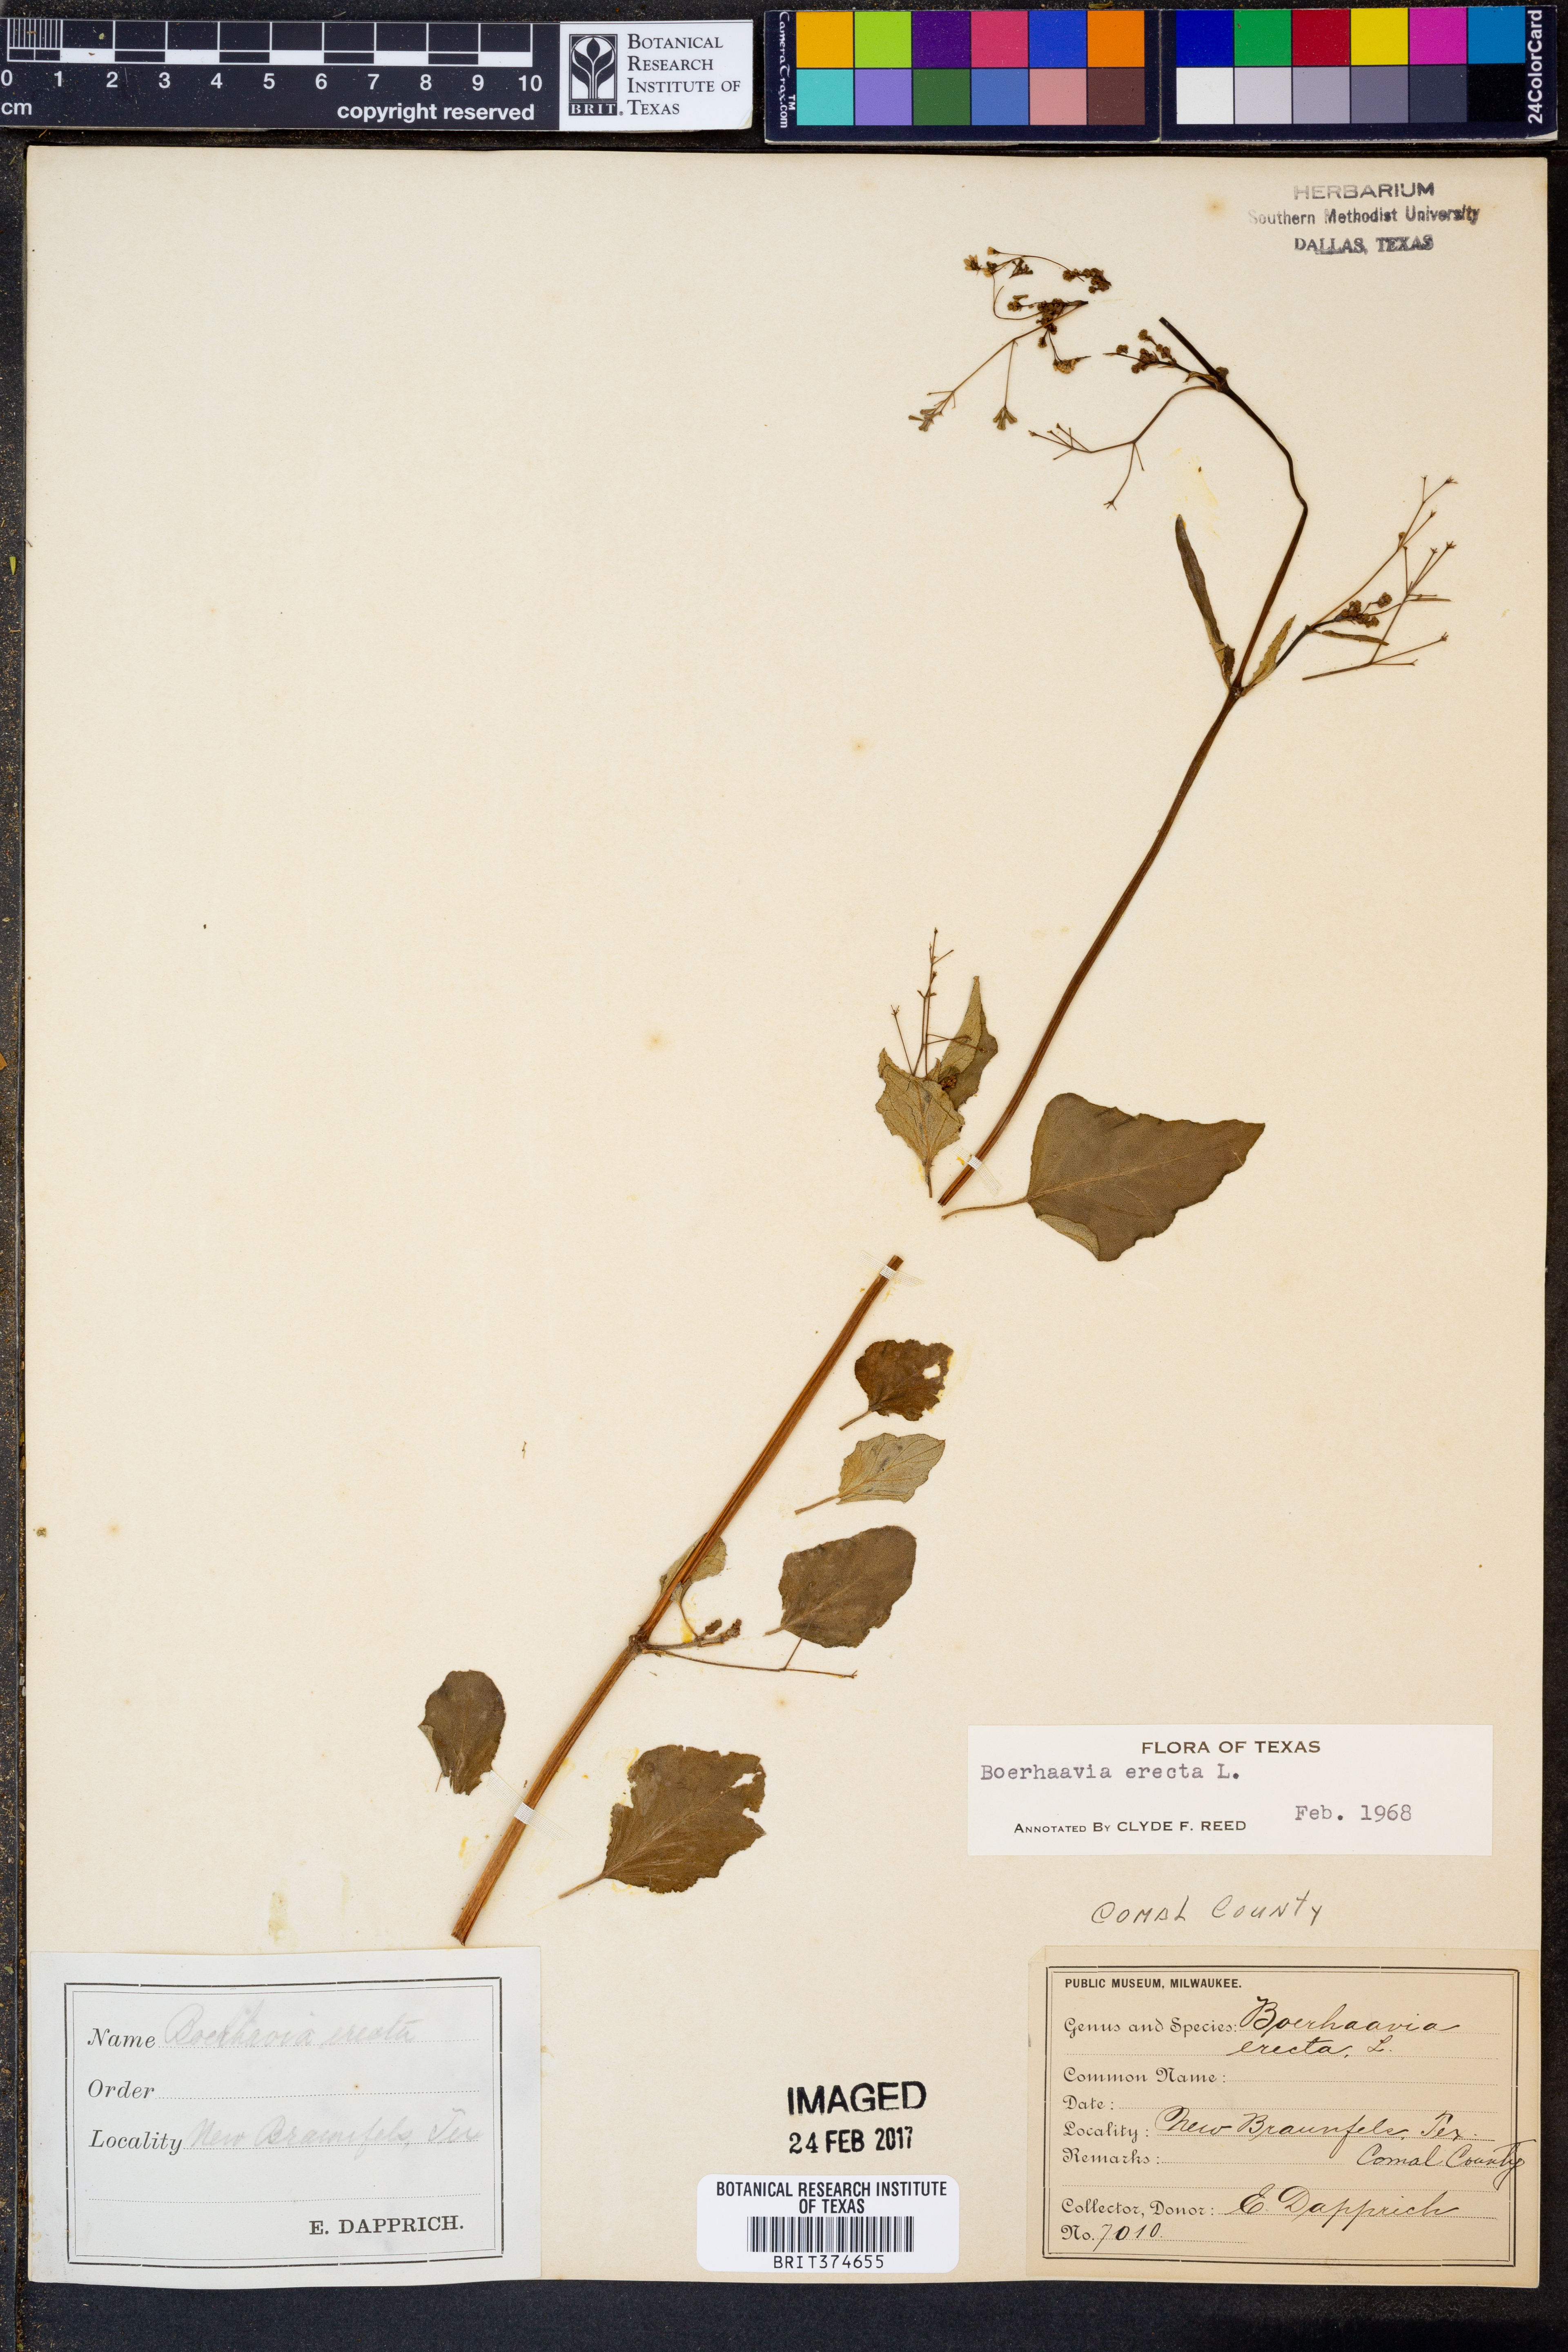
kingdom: Plantae
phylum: Tracheophyta
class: Magnoliopsida
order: Caryophyllales
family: Nyctaginaceae
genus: Boerhavia
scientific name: Boerhavia erecta
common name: Erect spiderling
